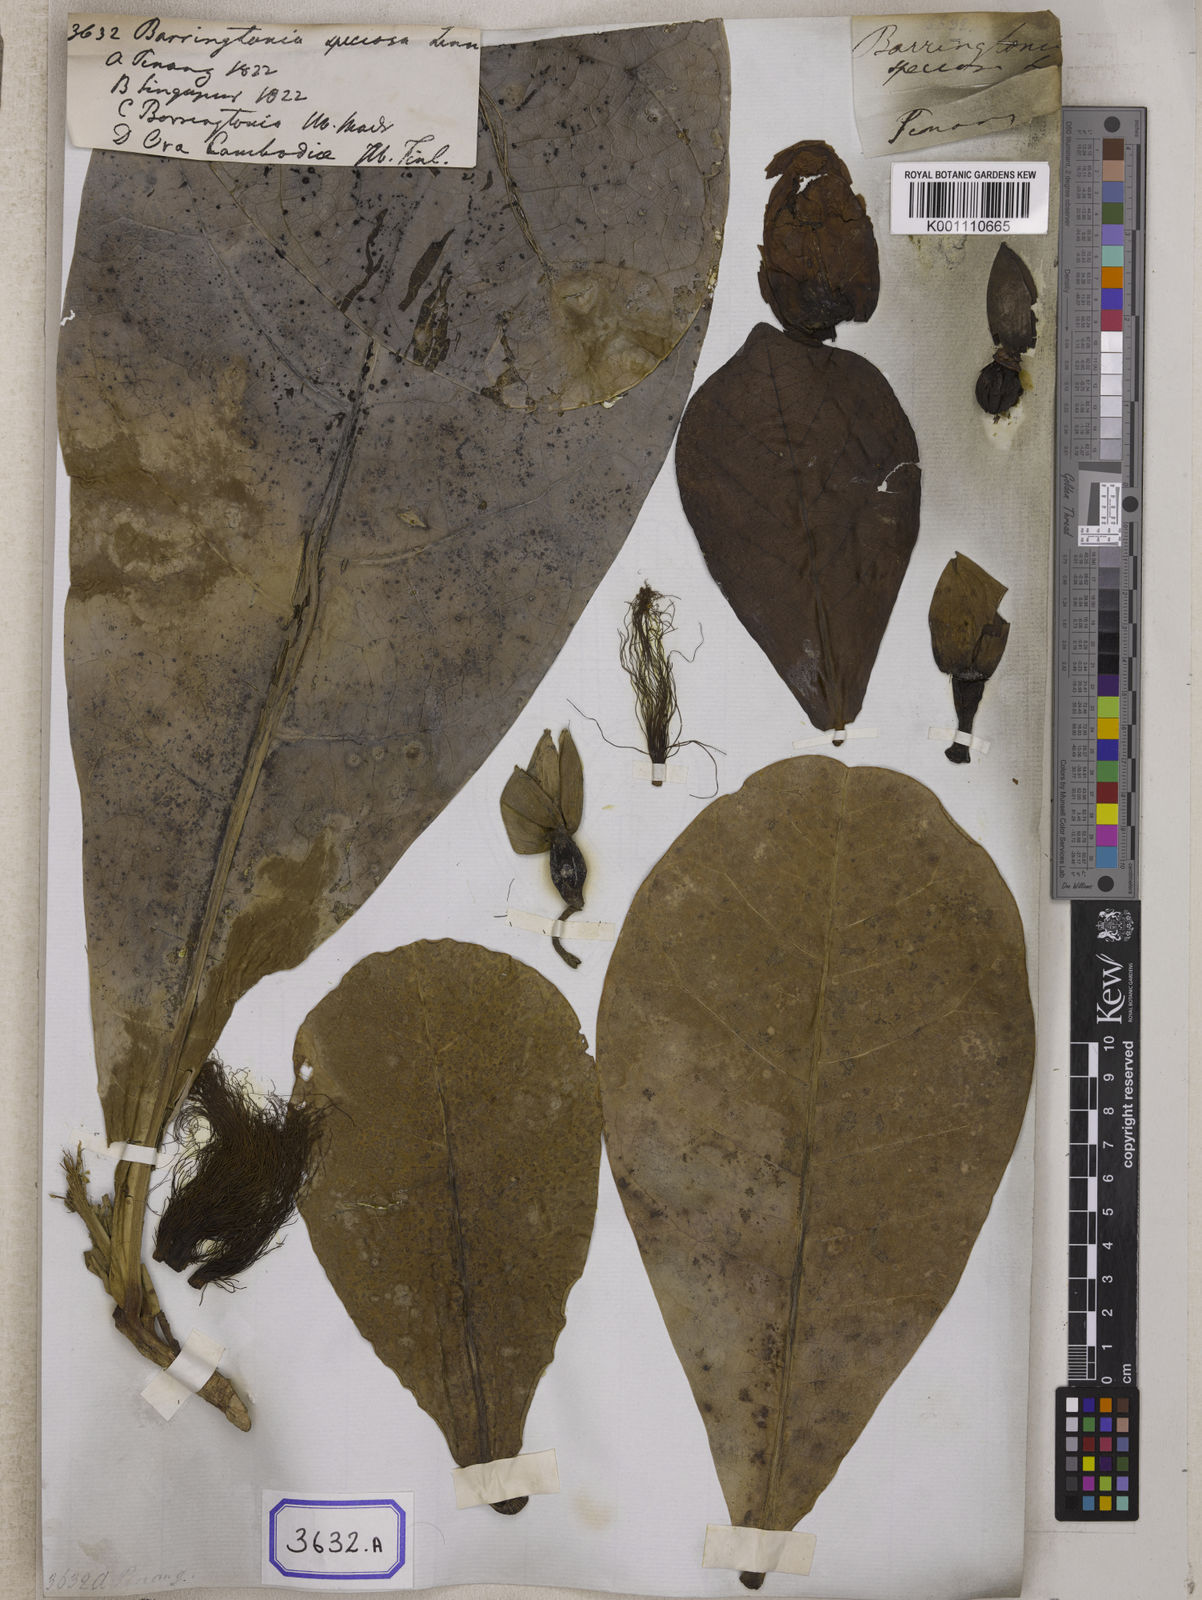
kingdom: Plantae
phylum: Tracheophyta
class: Magnoliopsida
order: Ericales
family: Lecythidaceae
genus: Barringtonia
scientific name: Barringtonia
